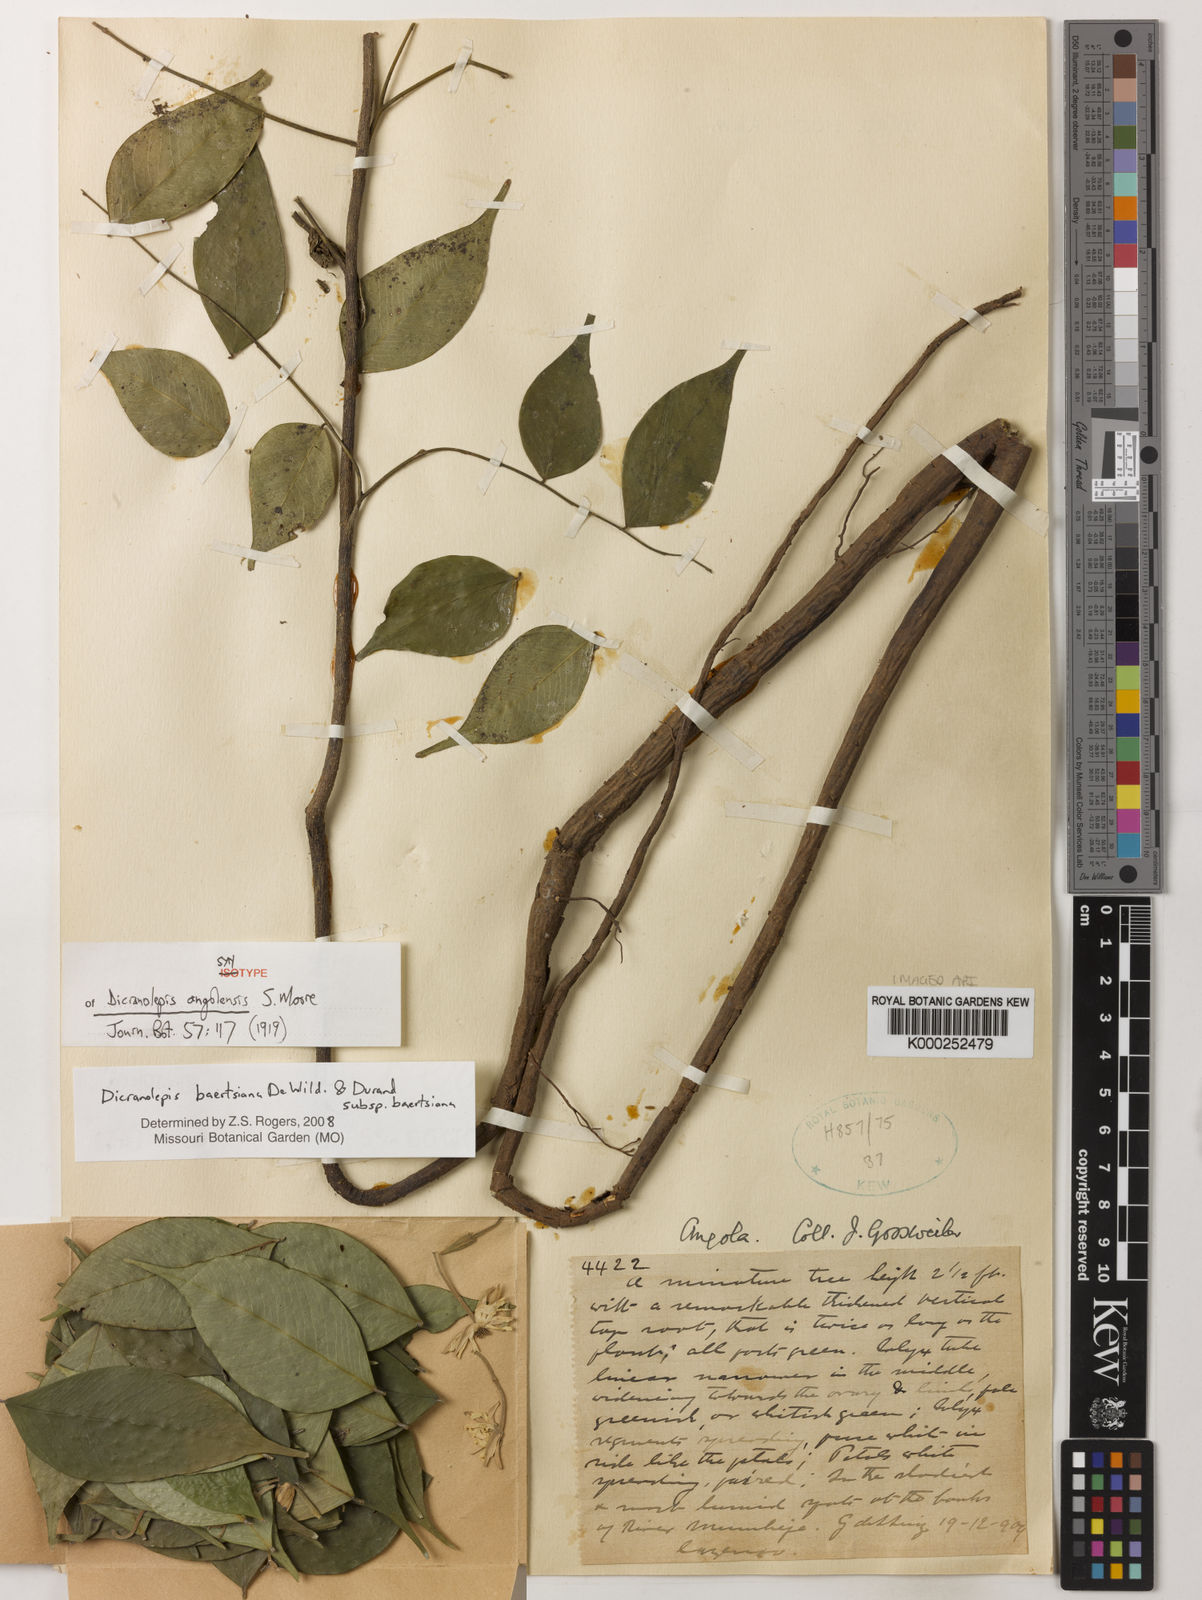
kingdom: Plantae
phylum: Tracheophyta
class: Magnoliopsida
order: Malvales
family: Thymelaeaceae
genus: Dicranolepis
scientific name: Dicranolepis baertsiana
